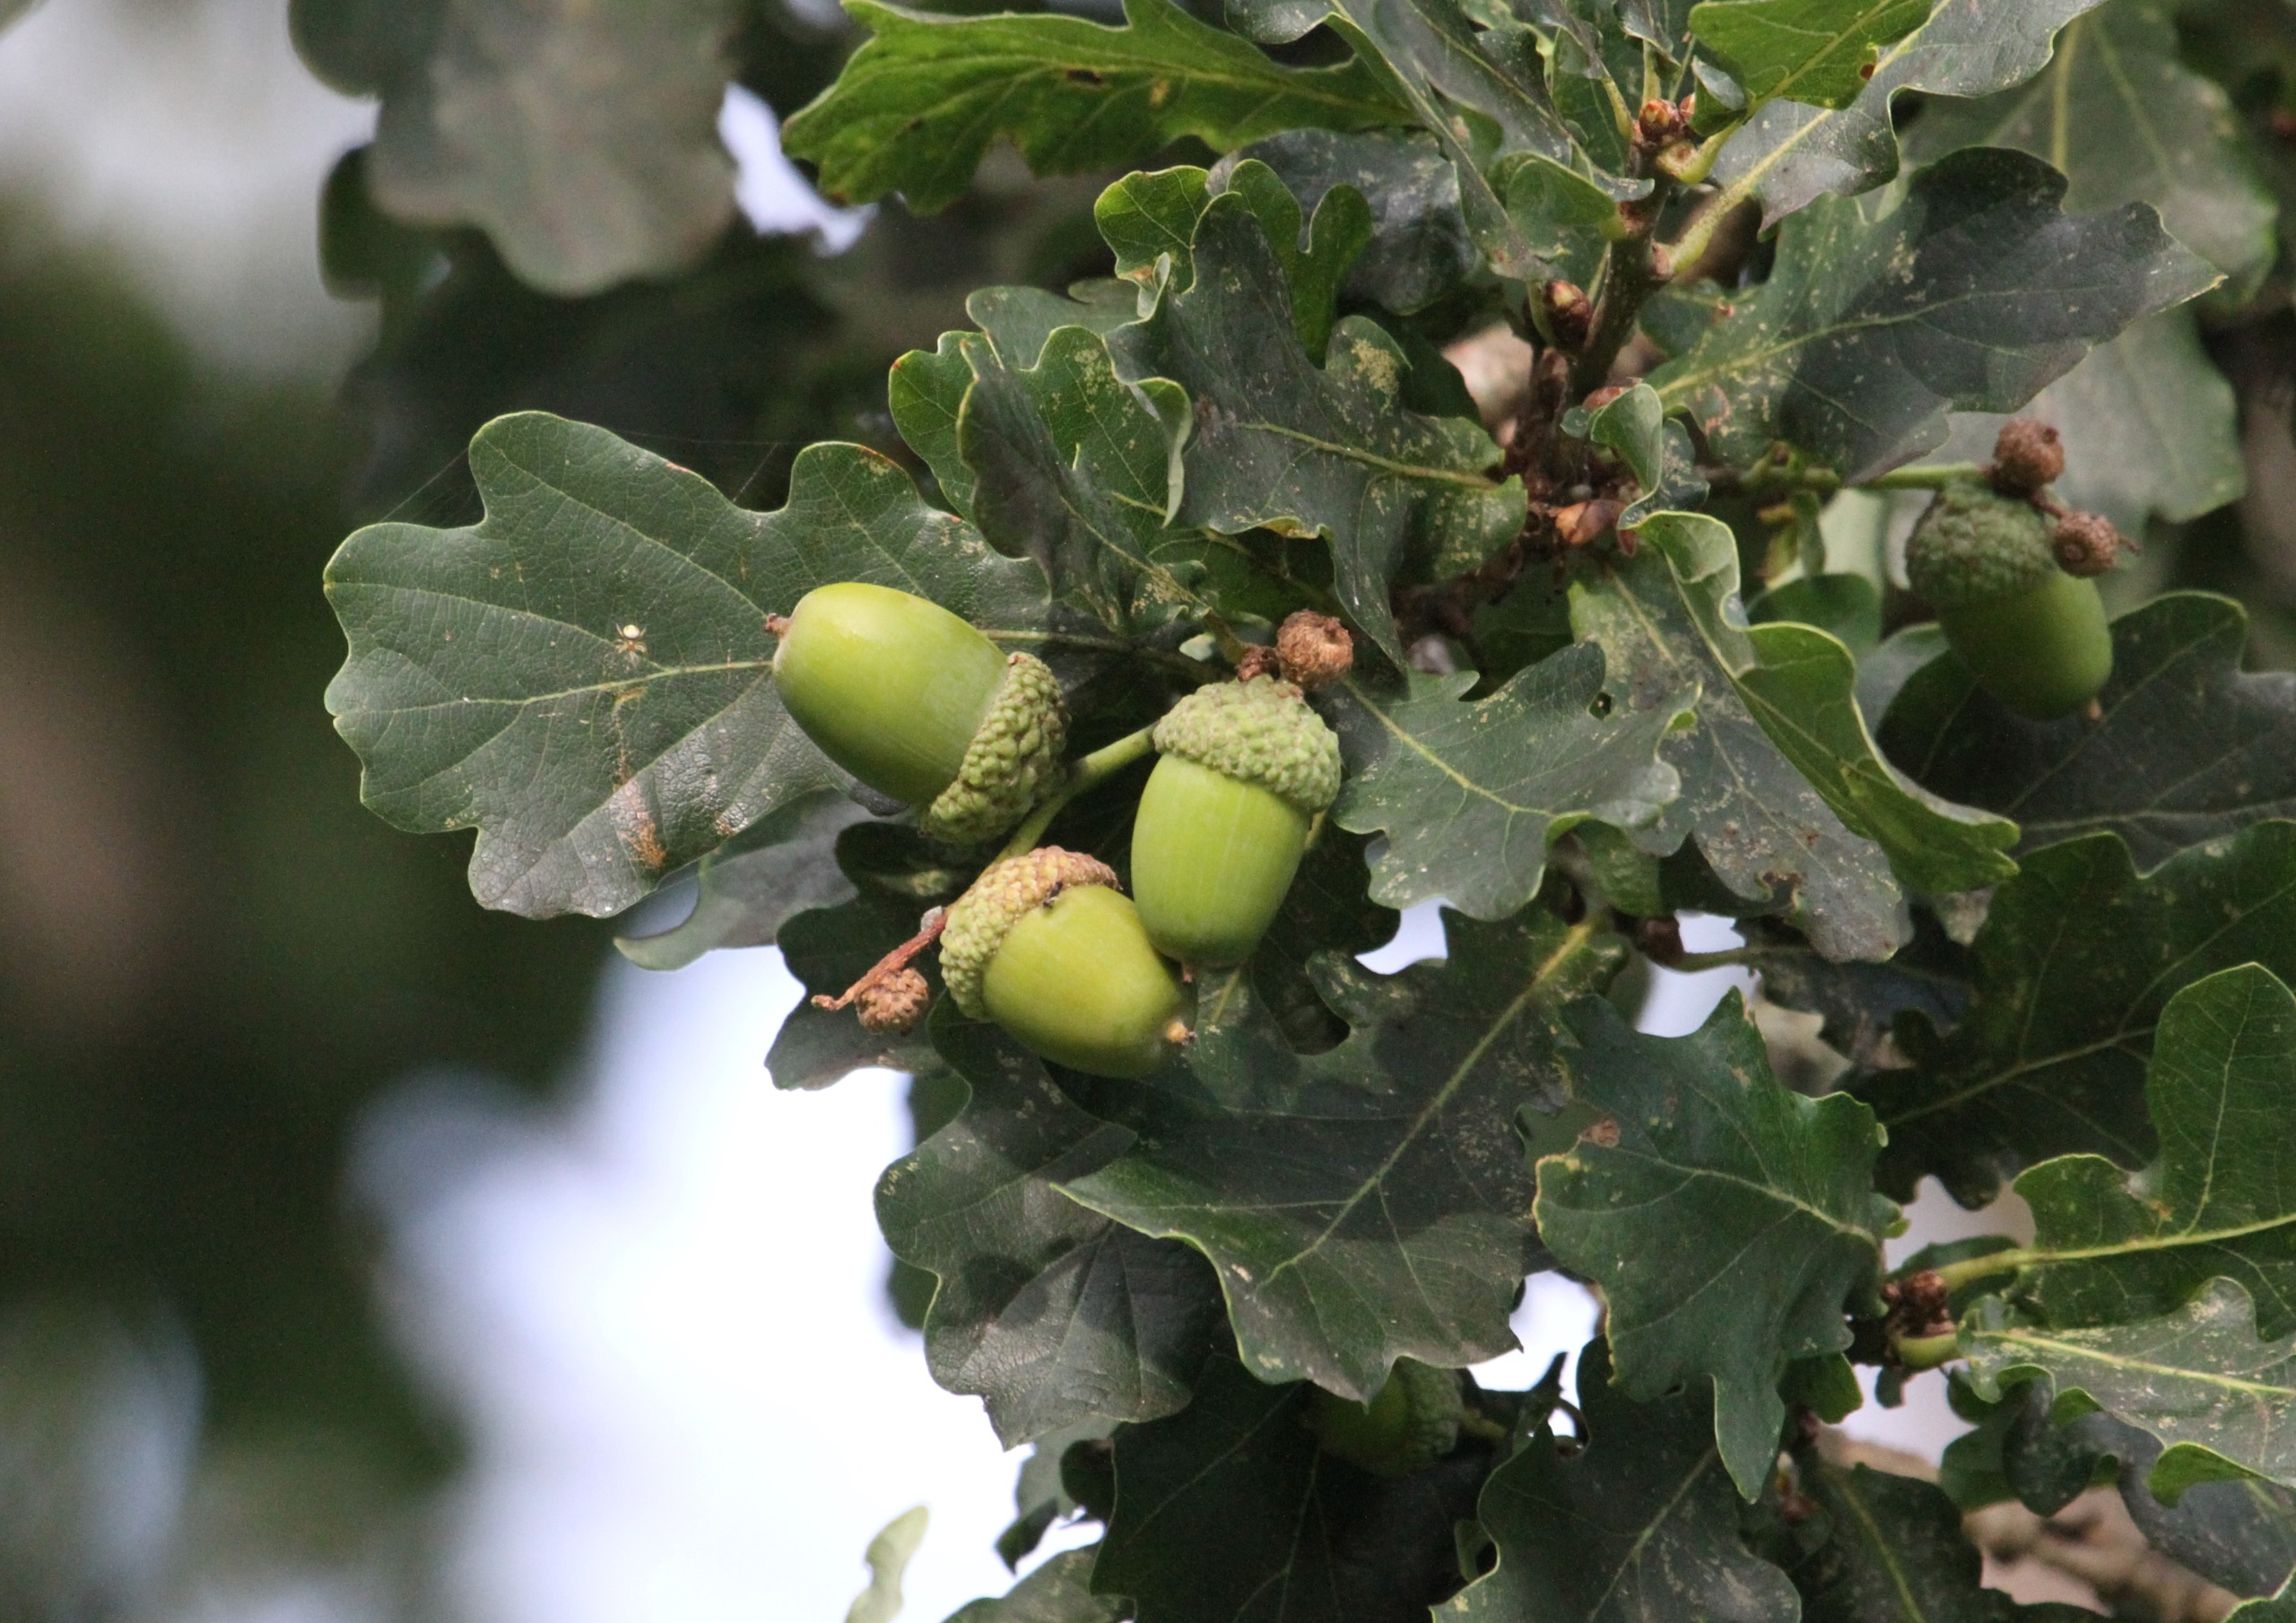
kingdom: Plantae
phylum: Tracheophyta
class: Magnoliopsida
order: Fagales
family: Fagaceae
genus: Quercus
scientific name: Quercus robur
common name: Stilk-eg/almindelig eg
